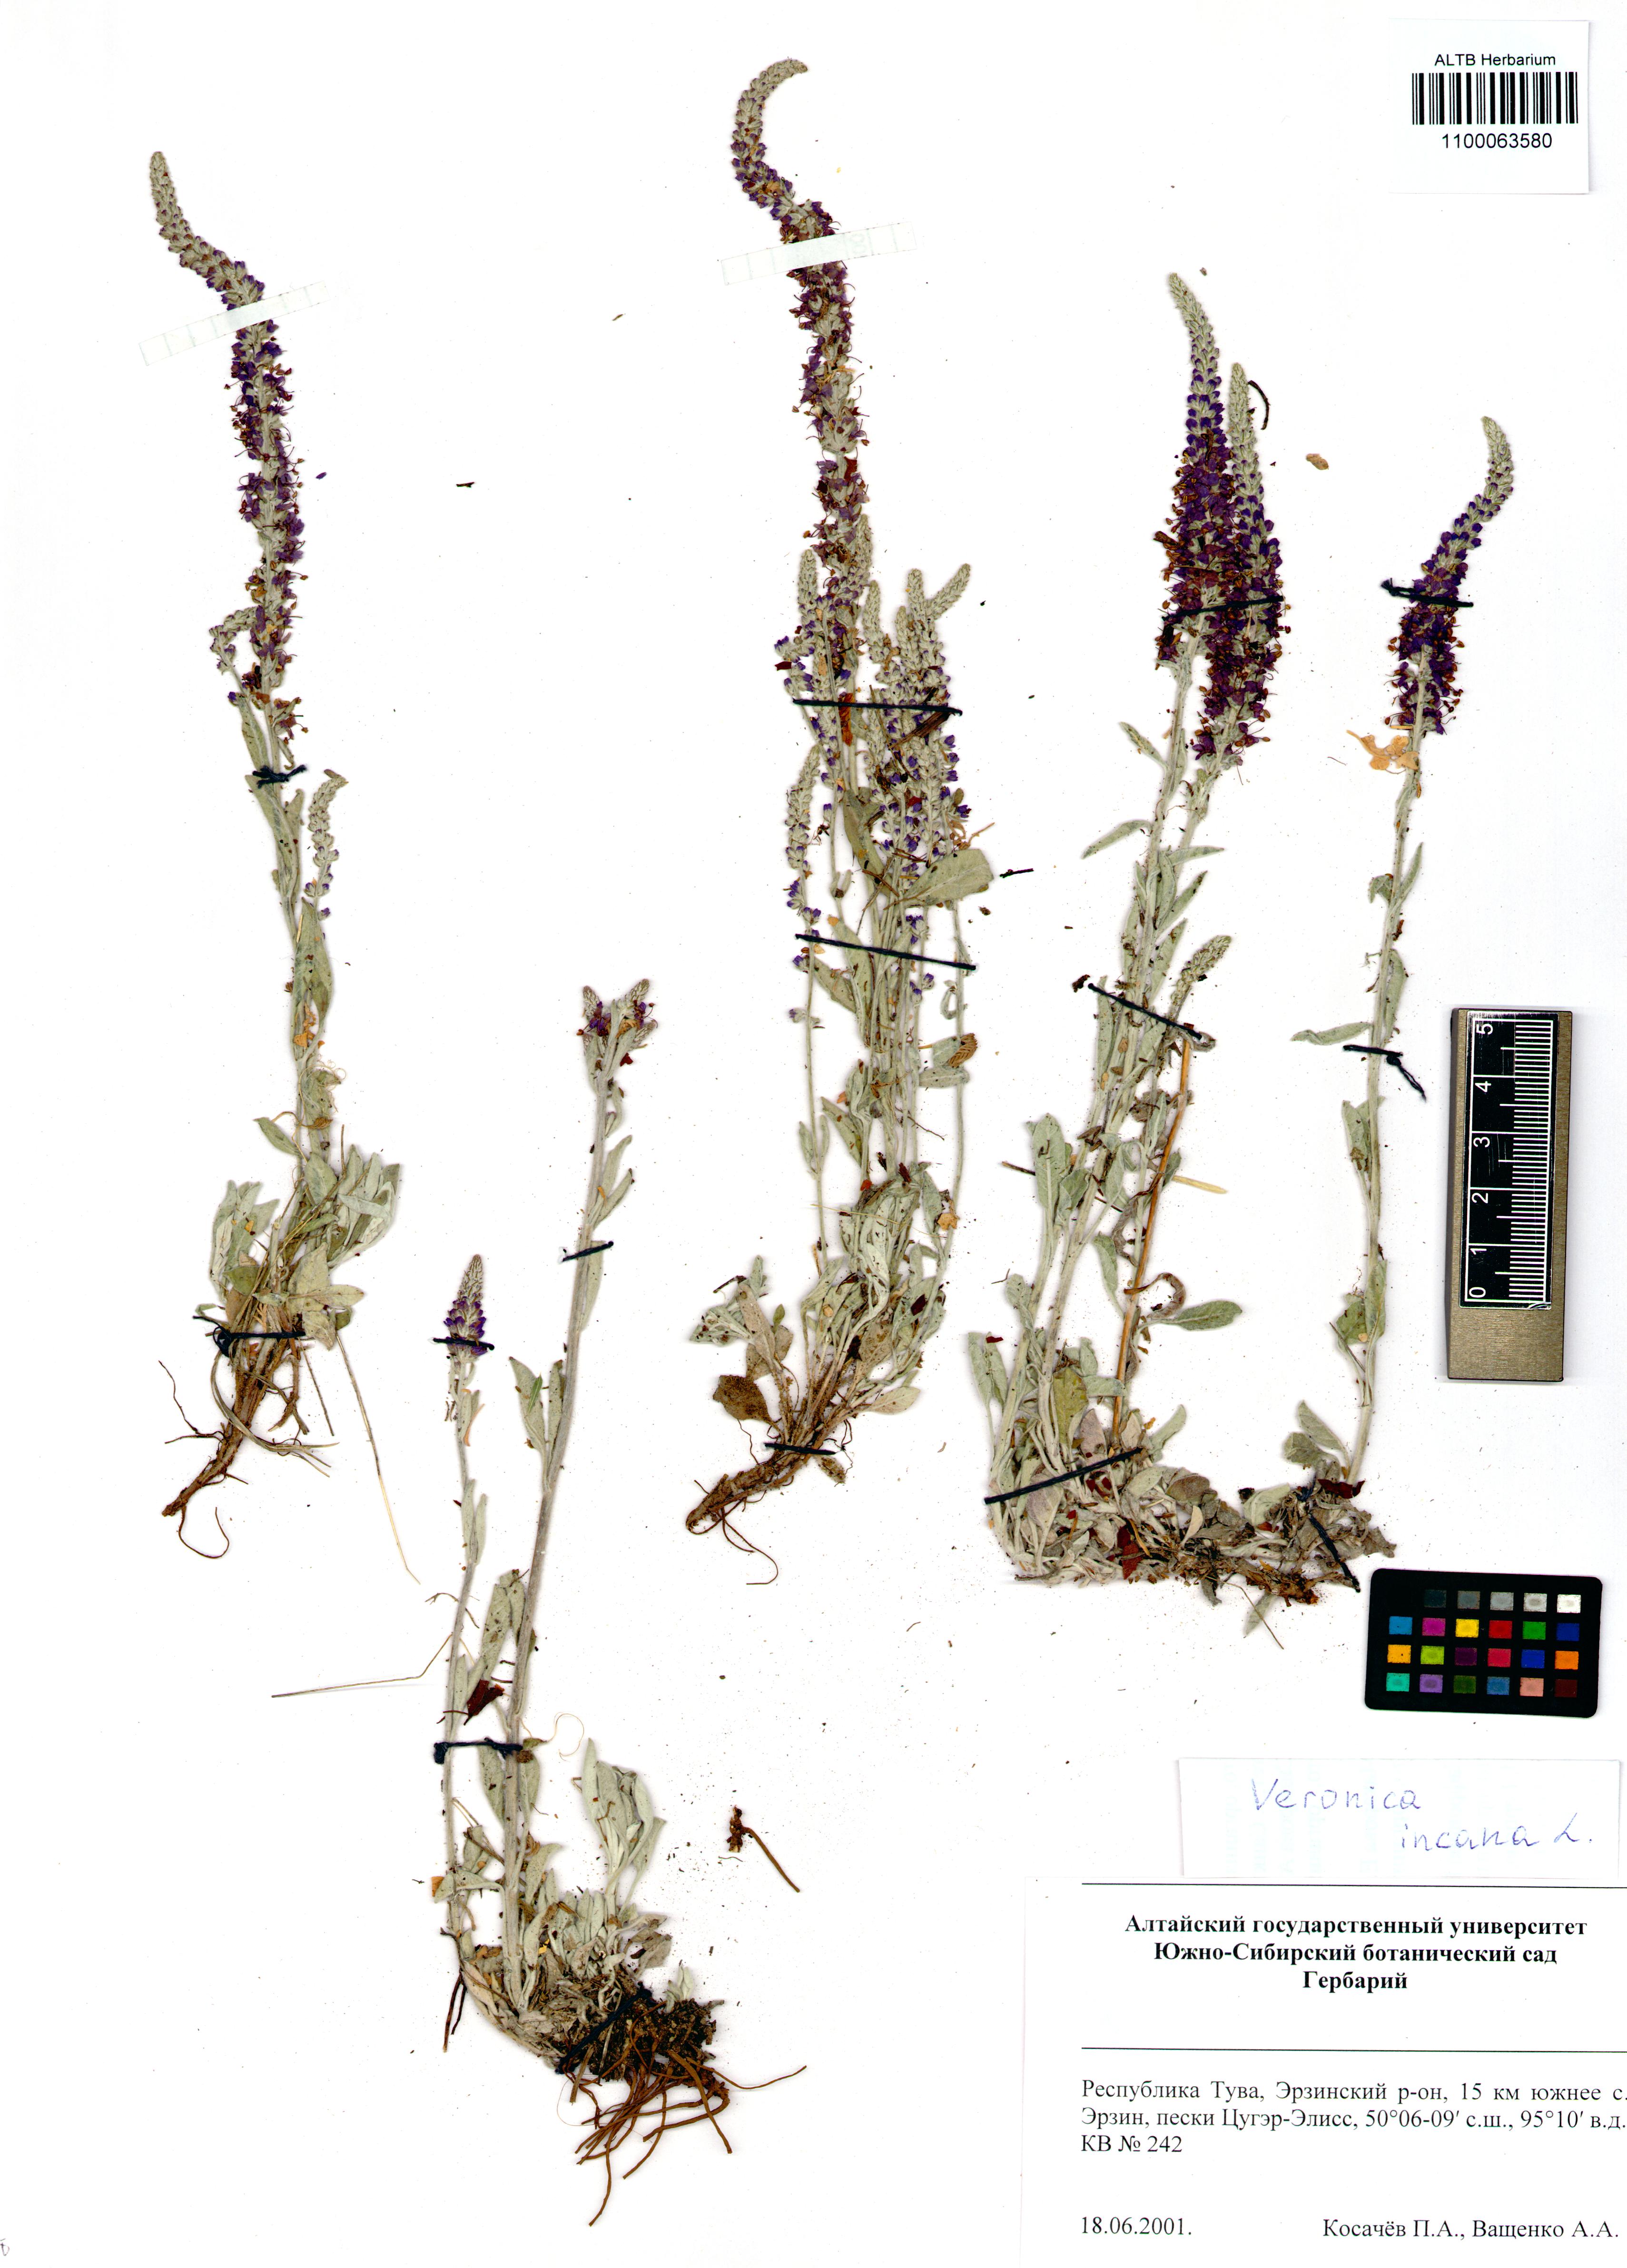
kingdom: Plantae
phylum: Tracheophyta
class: Magnoliopsida
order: Lamiales
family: Plantaginaceae
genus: Veronica
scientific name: Veronica incana
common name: Silver speedwell
